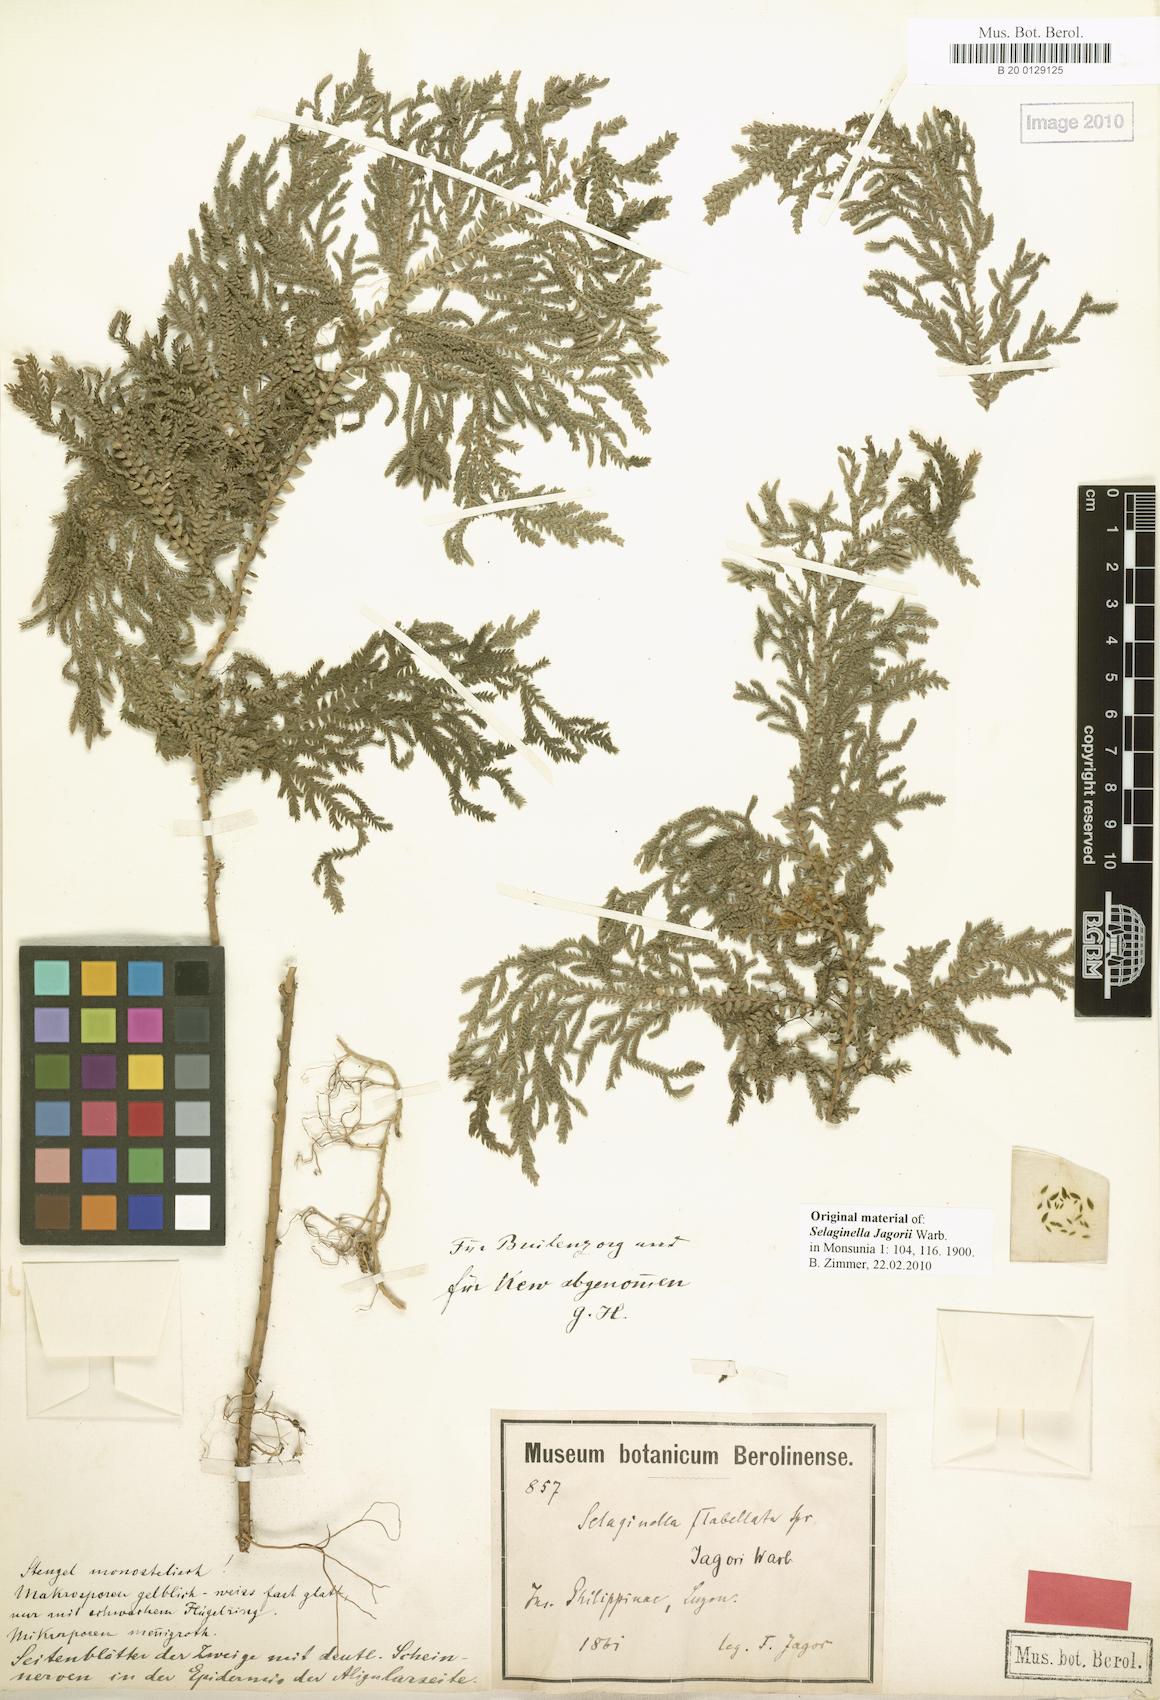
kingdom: Plantae
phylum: Tracheophyta
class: Lycopodiopsida
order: Selaginellales
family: Selaginellaceae
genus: Selaginella
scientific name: Selaginella jagorii
